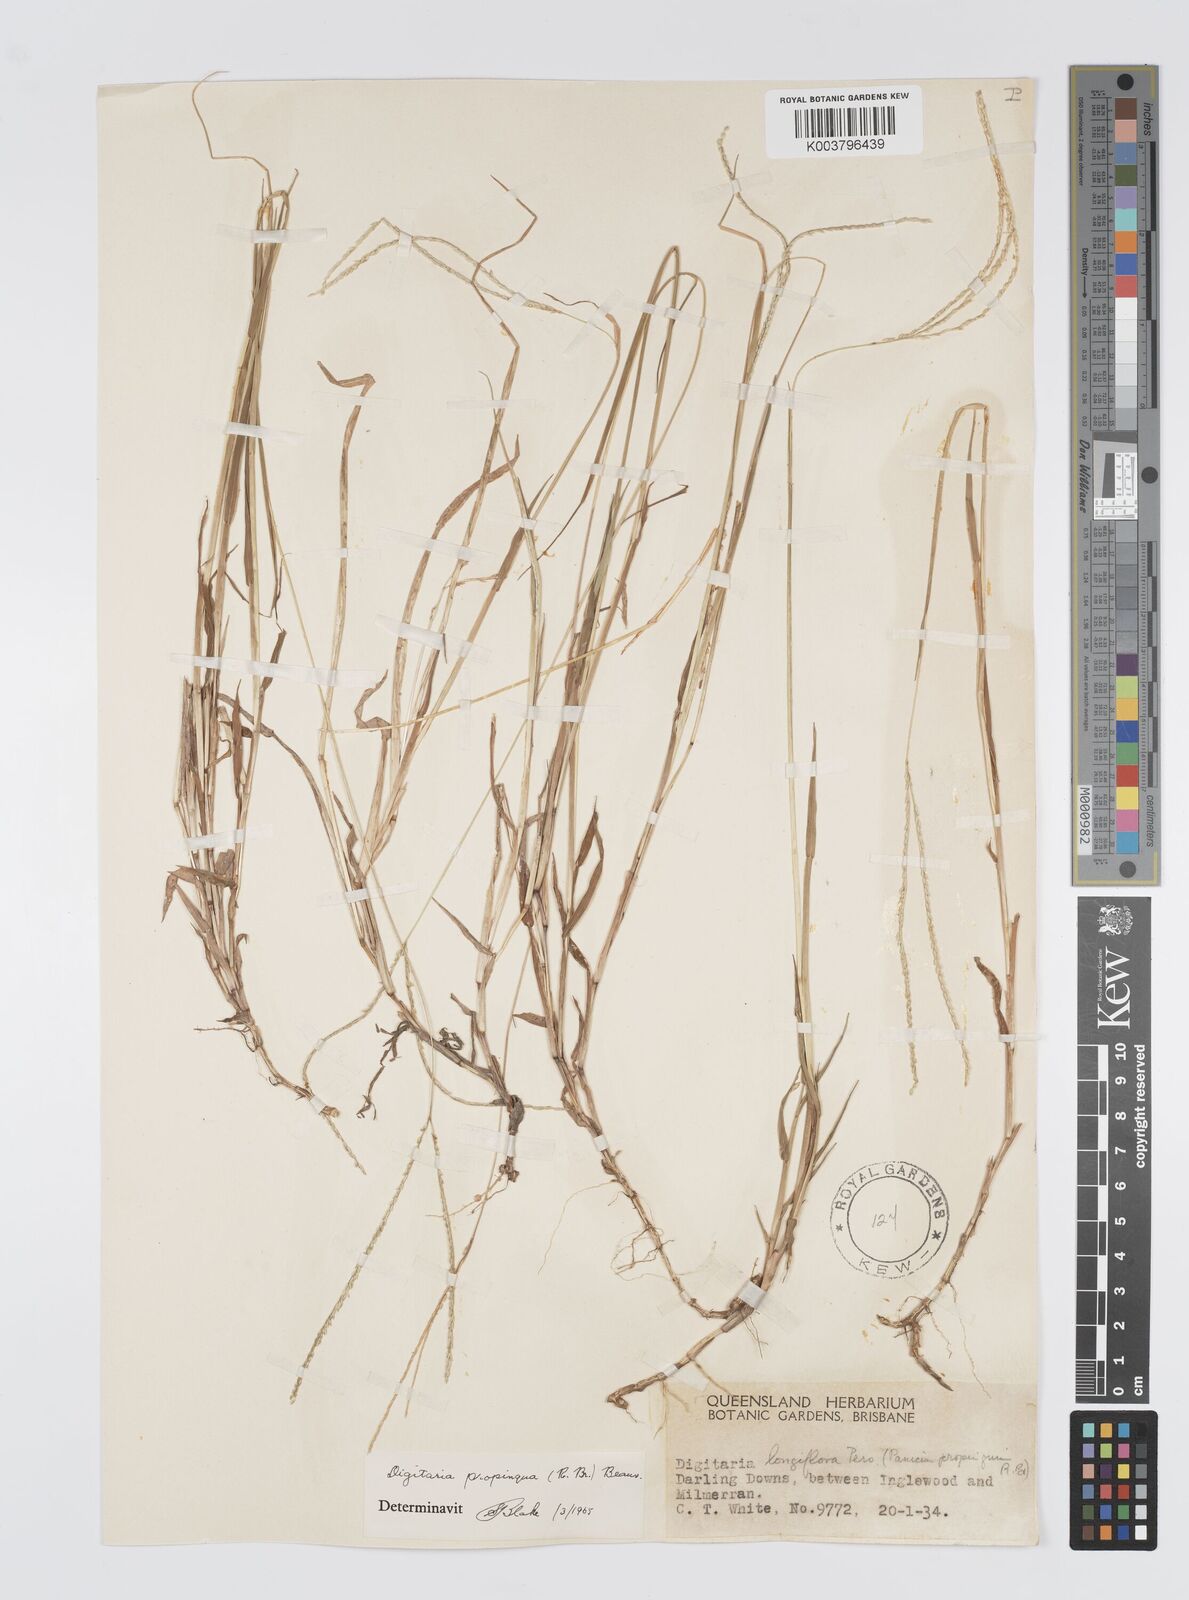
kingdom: Plantae
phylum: Tracheophyta
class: Liliopsida
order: Poales
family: Poaceae
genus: Digitaria
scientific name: Digitaria longiflora
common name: Wire crabgrass
